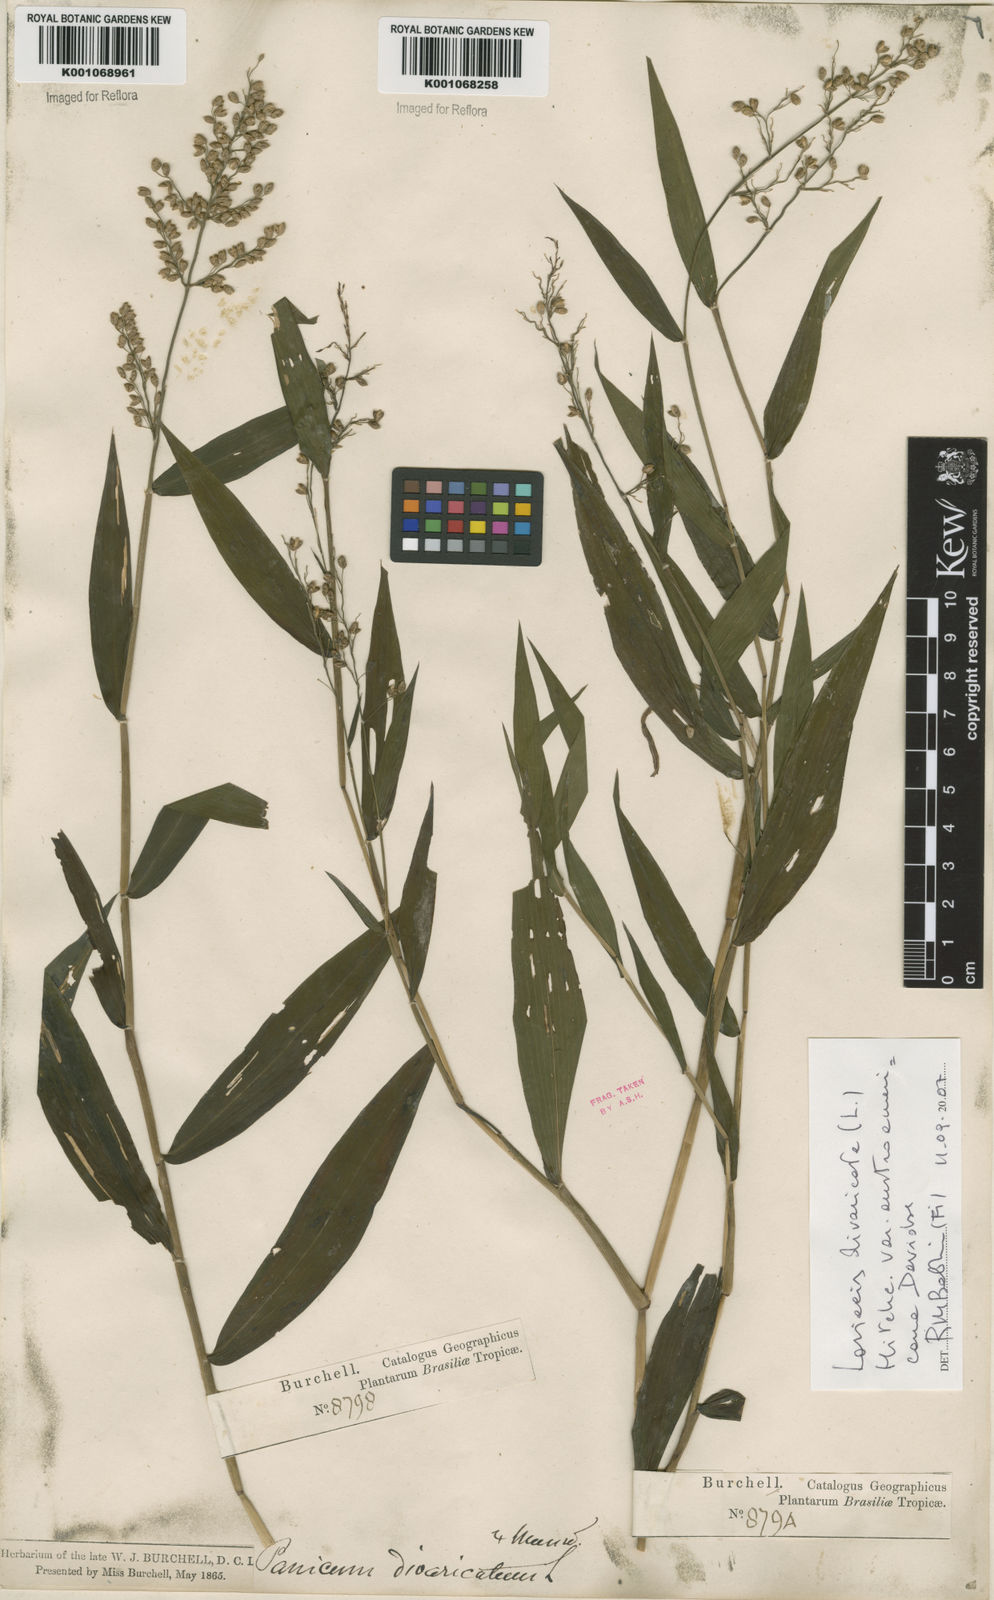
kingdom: Plantae
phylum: Tracheophyta
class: Liliopsida
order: Poales
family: Poaceae
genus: Lasiacis
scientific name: Lasiacis divaricata
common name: Smallcane
